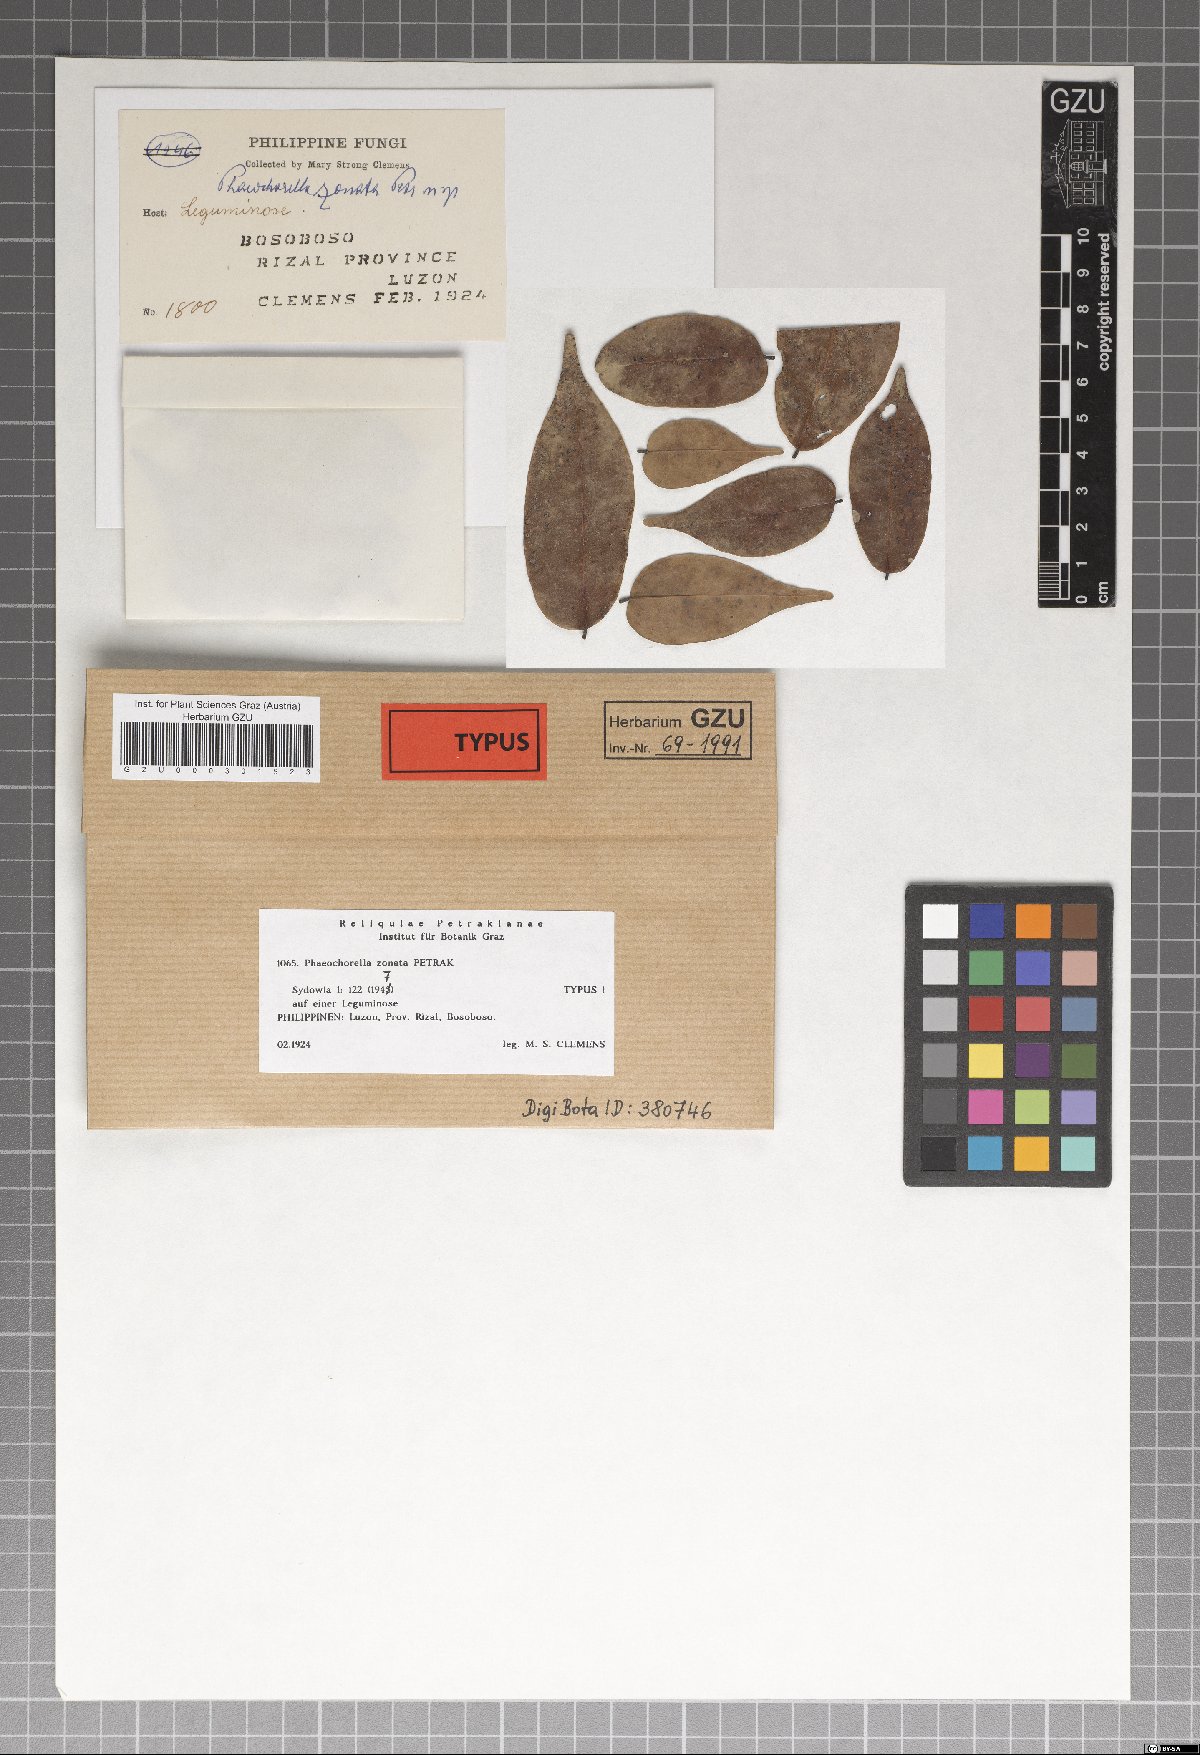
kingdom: Fungi
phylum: Ascomycota
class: Sordariomycetes
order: Diaporthales
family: Phaeochorellaceae
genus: Phaeochorella
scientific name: Phaeochorella zonata
